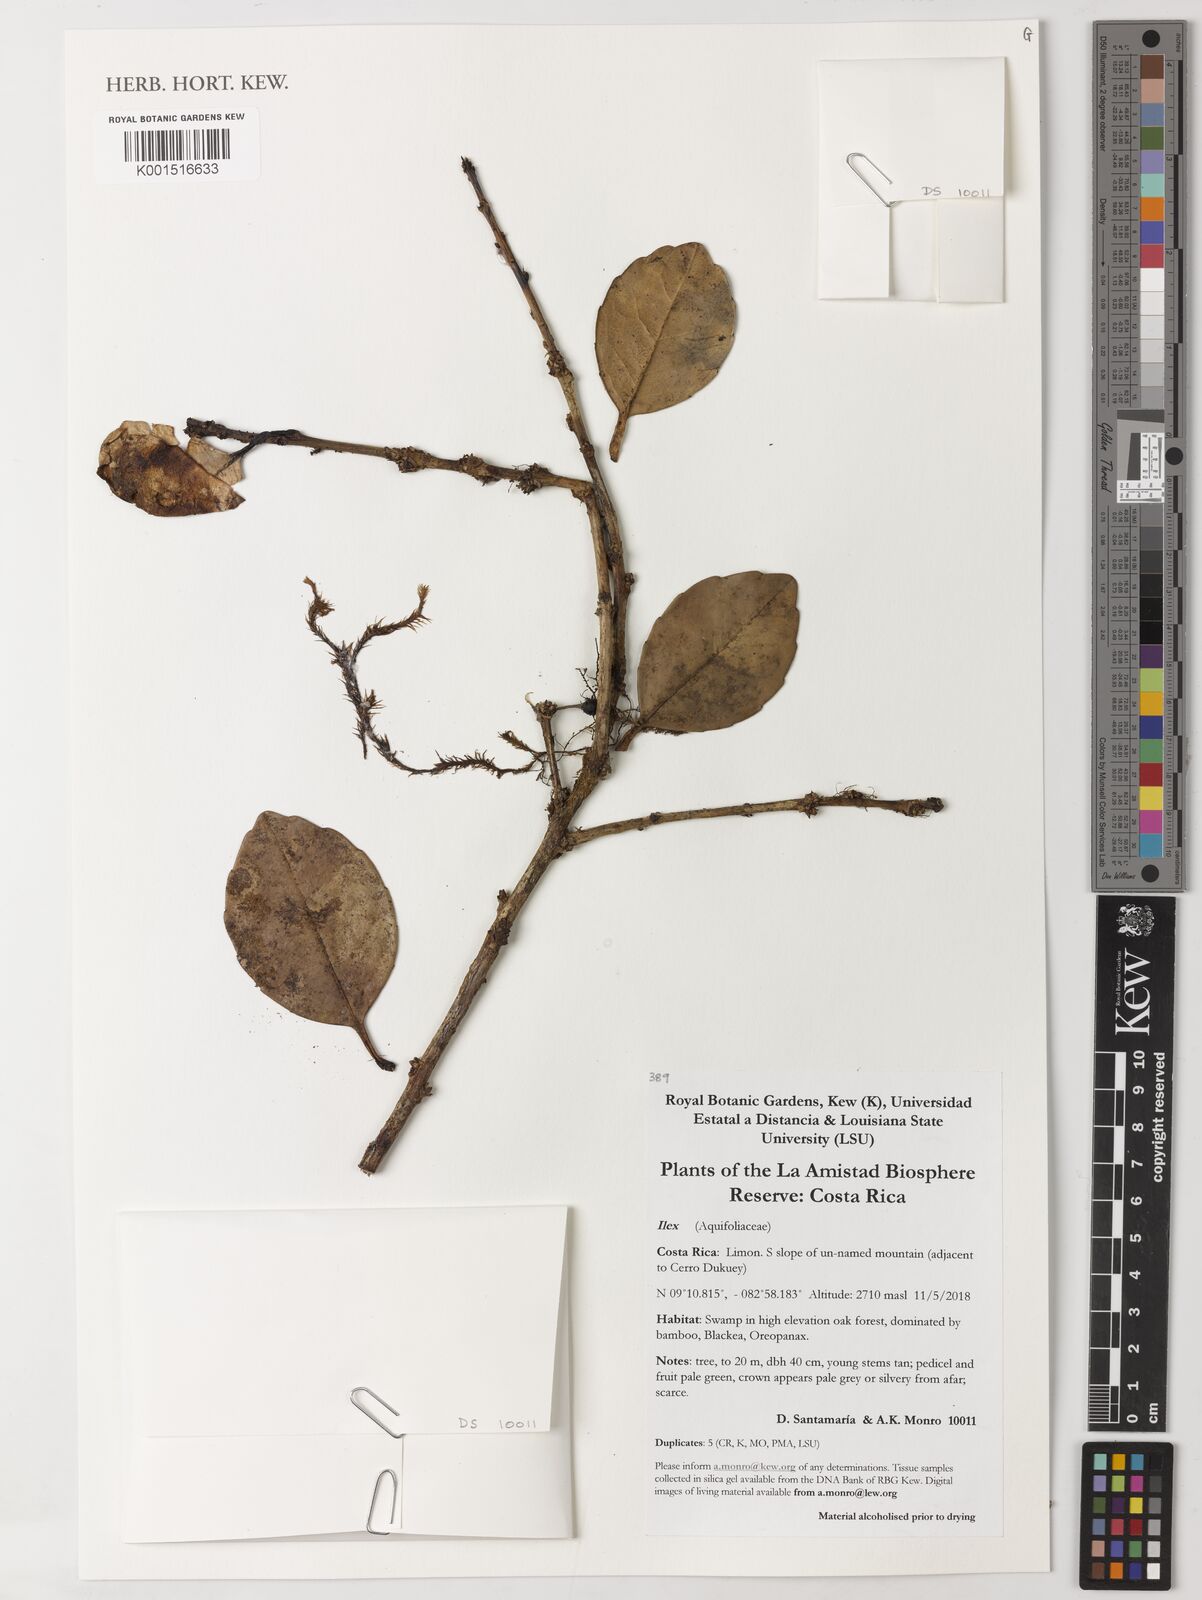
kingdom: Plantae
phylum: Tracheophyta
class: Magnoliopsida
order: Aquifoliales
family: Aquifoliaceae
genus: Ilex
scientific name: Ilex
